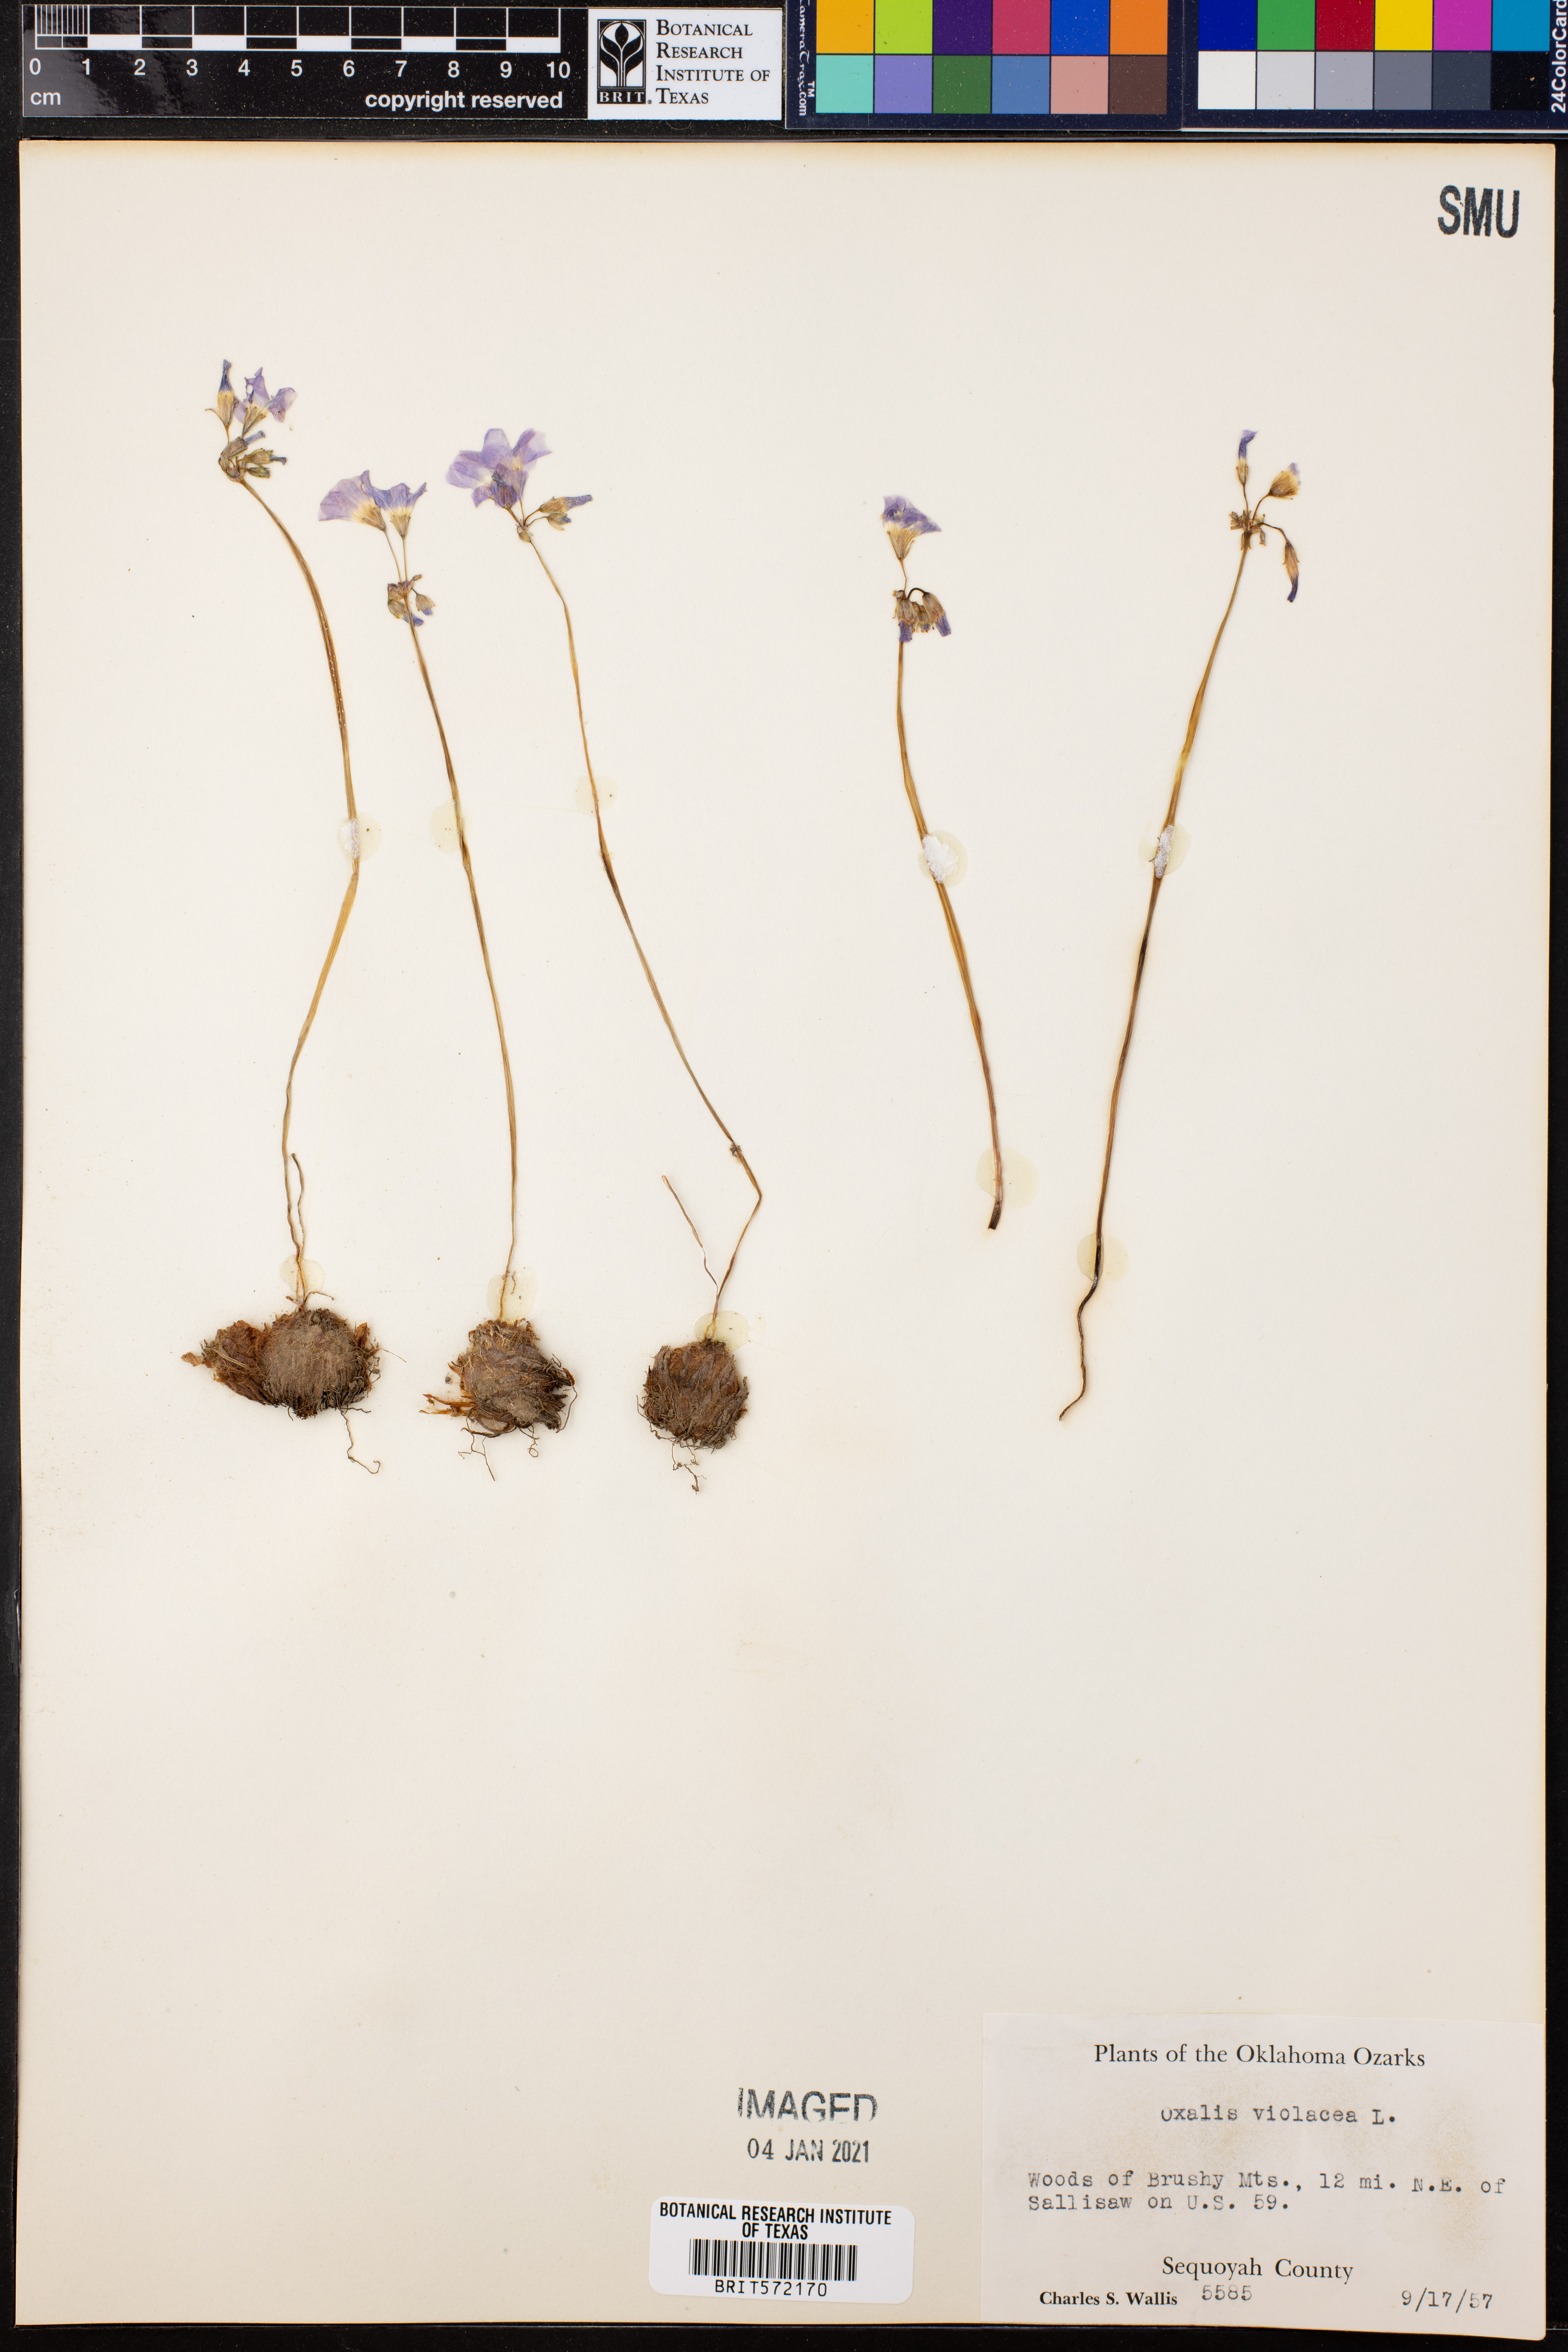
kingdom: Plantae
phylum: Tracheophyta
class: Magnoliopsida
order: Oxalidales
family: Oxalidaceae
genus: Oxalis
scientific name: Oxalis violacea
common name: Violet wood-sorrel
